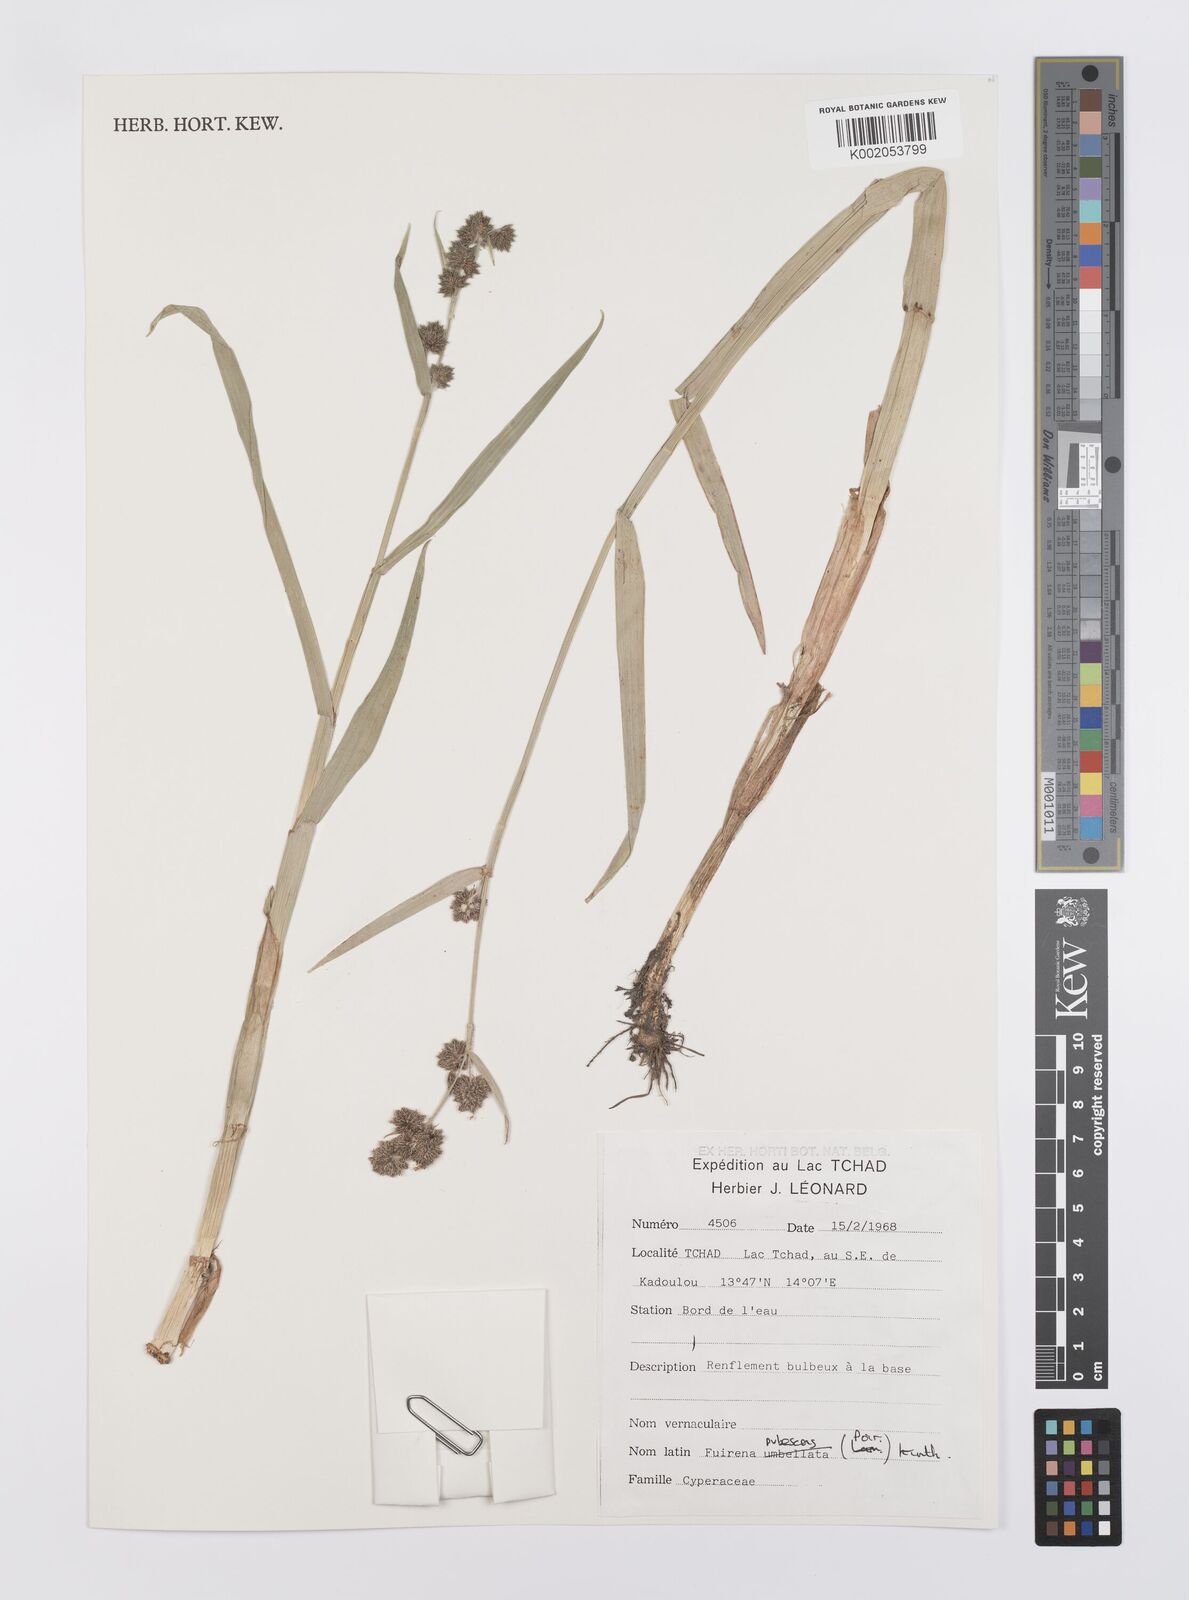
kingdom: Plantae
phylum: Tracheophyta
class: Liliopsida
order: Poales
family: Cyperaceae
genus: Fuirena
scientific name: Fuirena pubescens
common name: Hairy sedge
